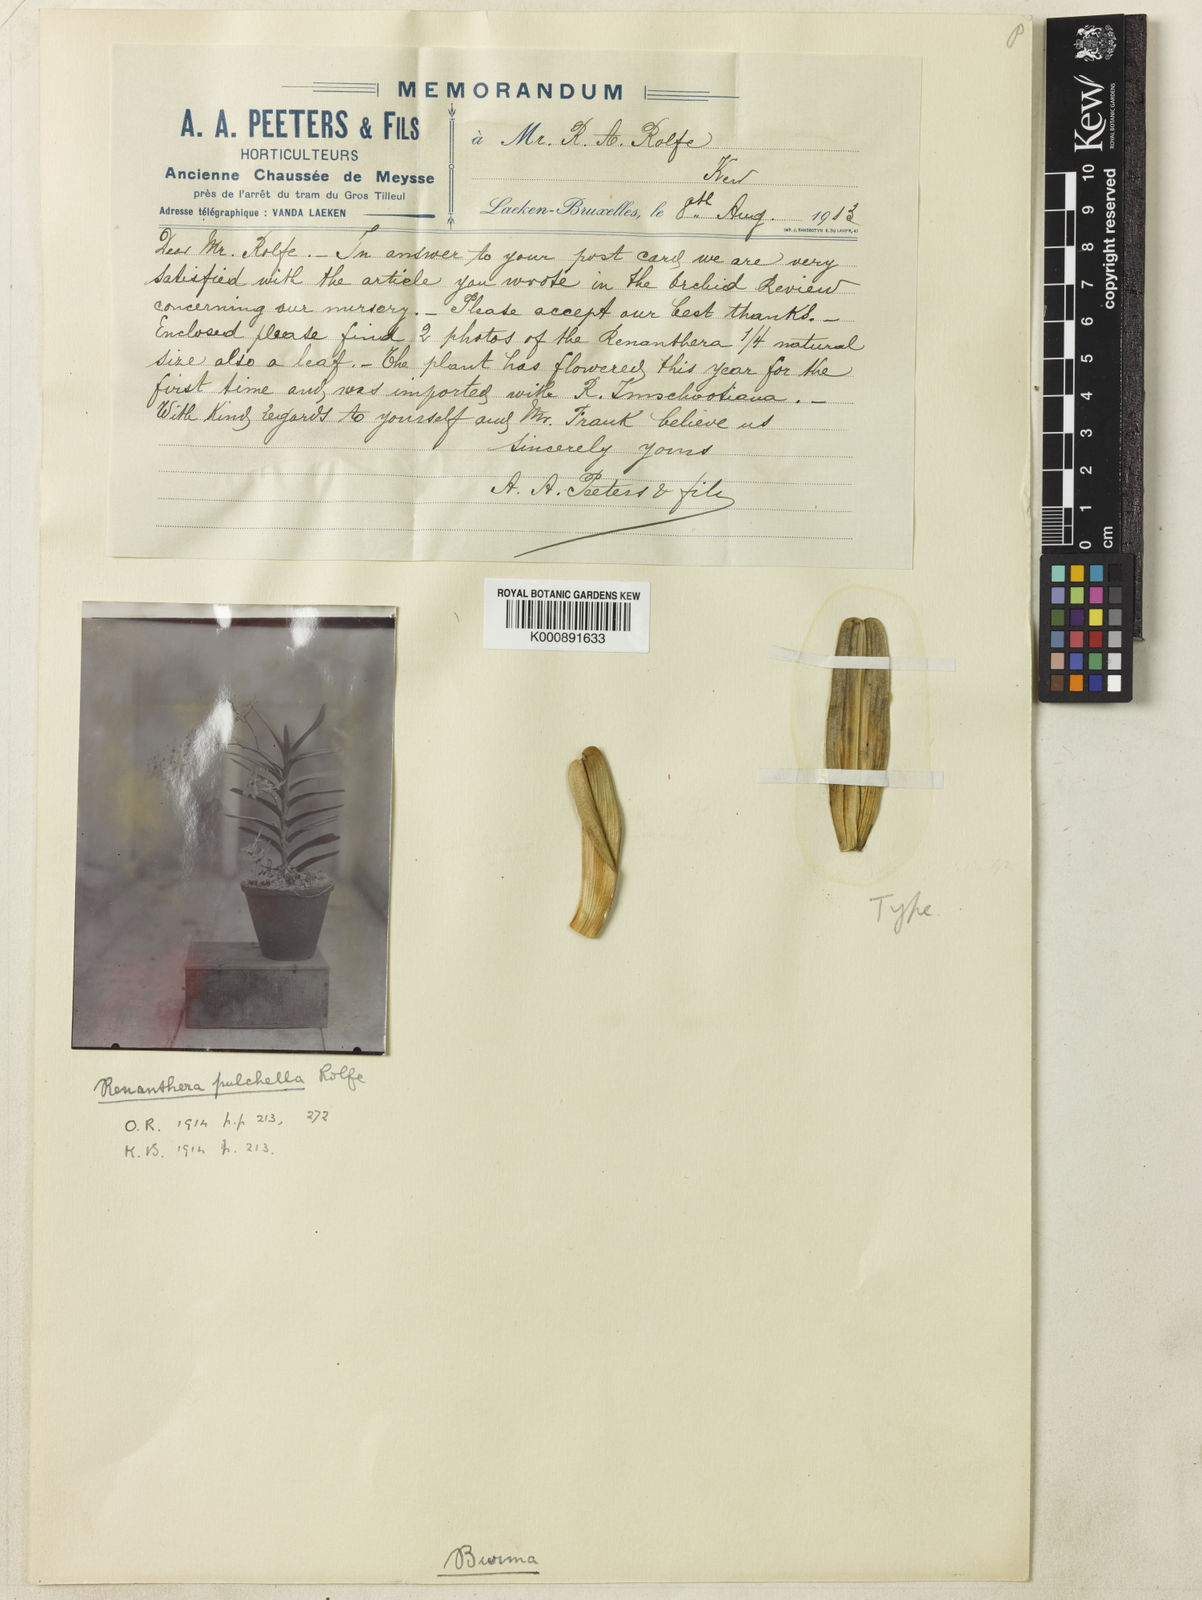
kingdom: Plantae
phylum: Tracheophyta
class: Liliopsida
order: Asparagales
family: Orchidaceae
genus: Renanthera
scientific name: Renanthera pulchella
